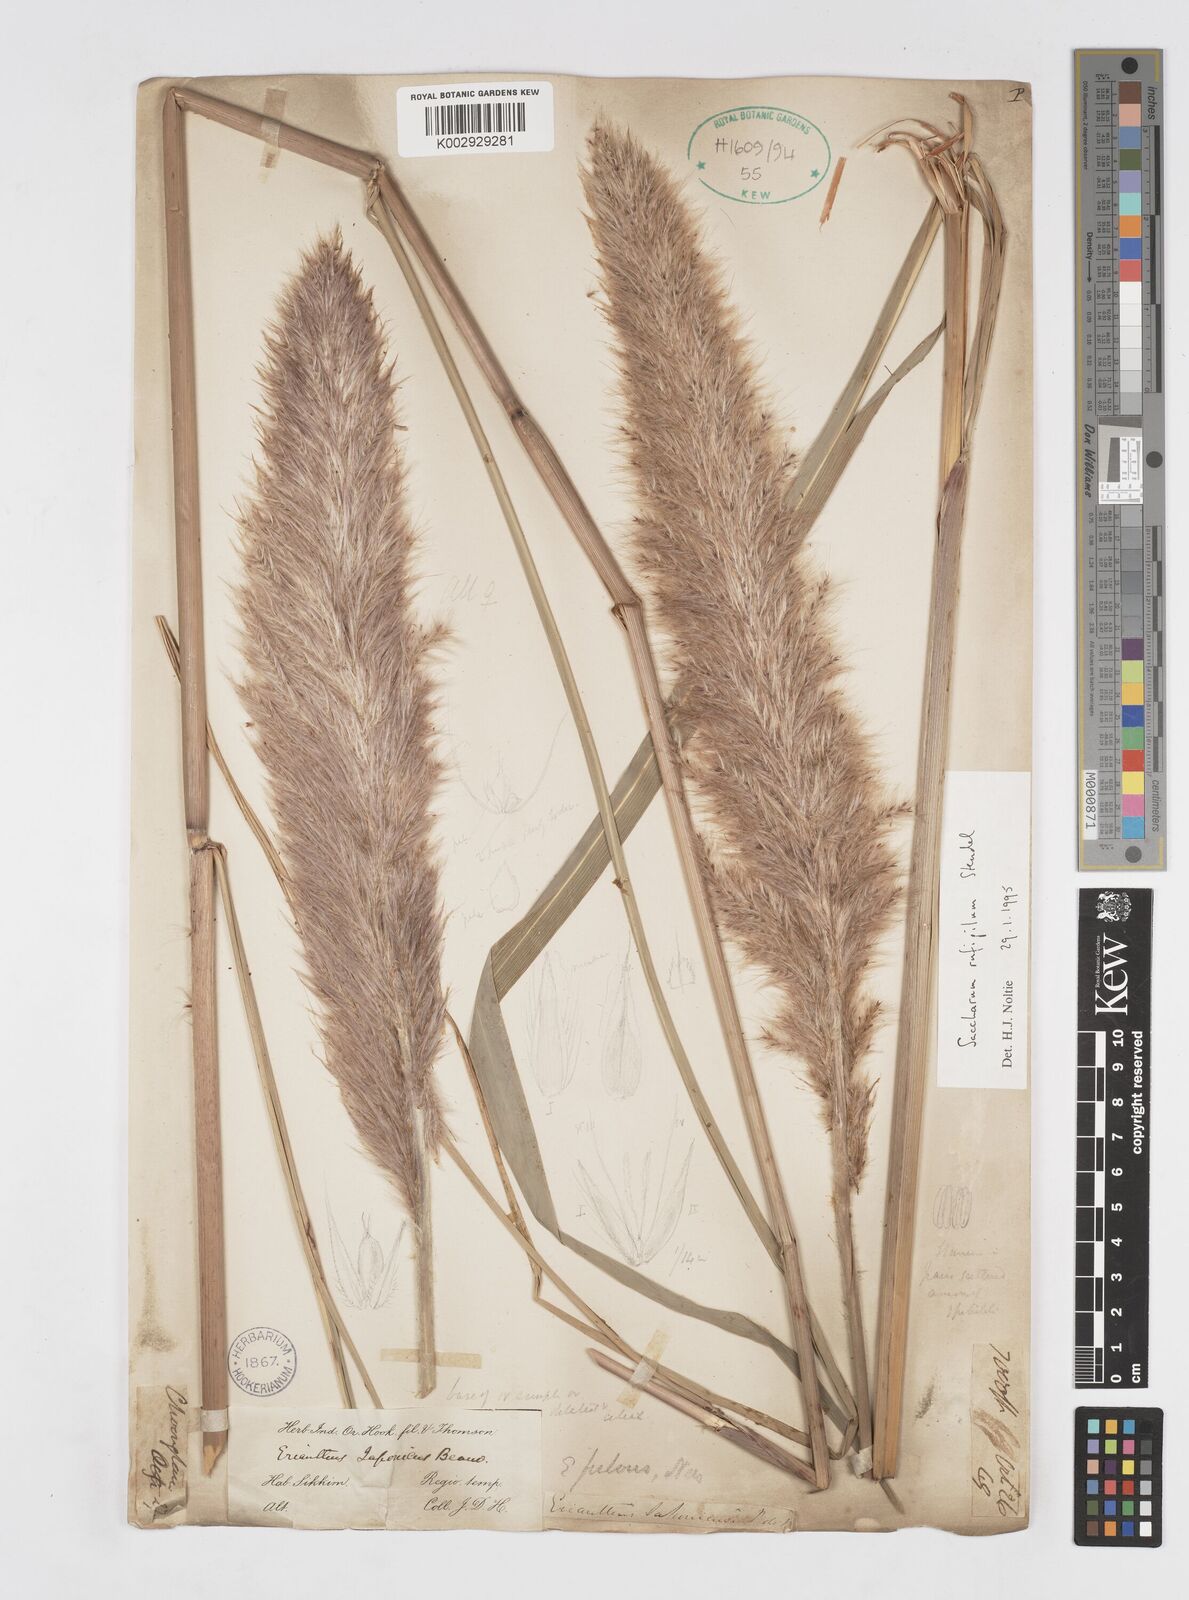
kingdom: Plantae
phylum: Tracheophyta
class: Liliopsida
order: Poales
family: Poaceae
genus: Tripidium
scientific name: Tripidium rufipilum
